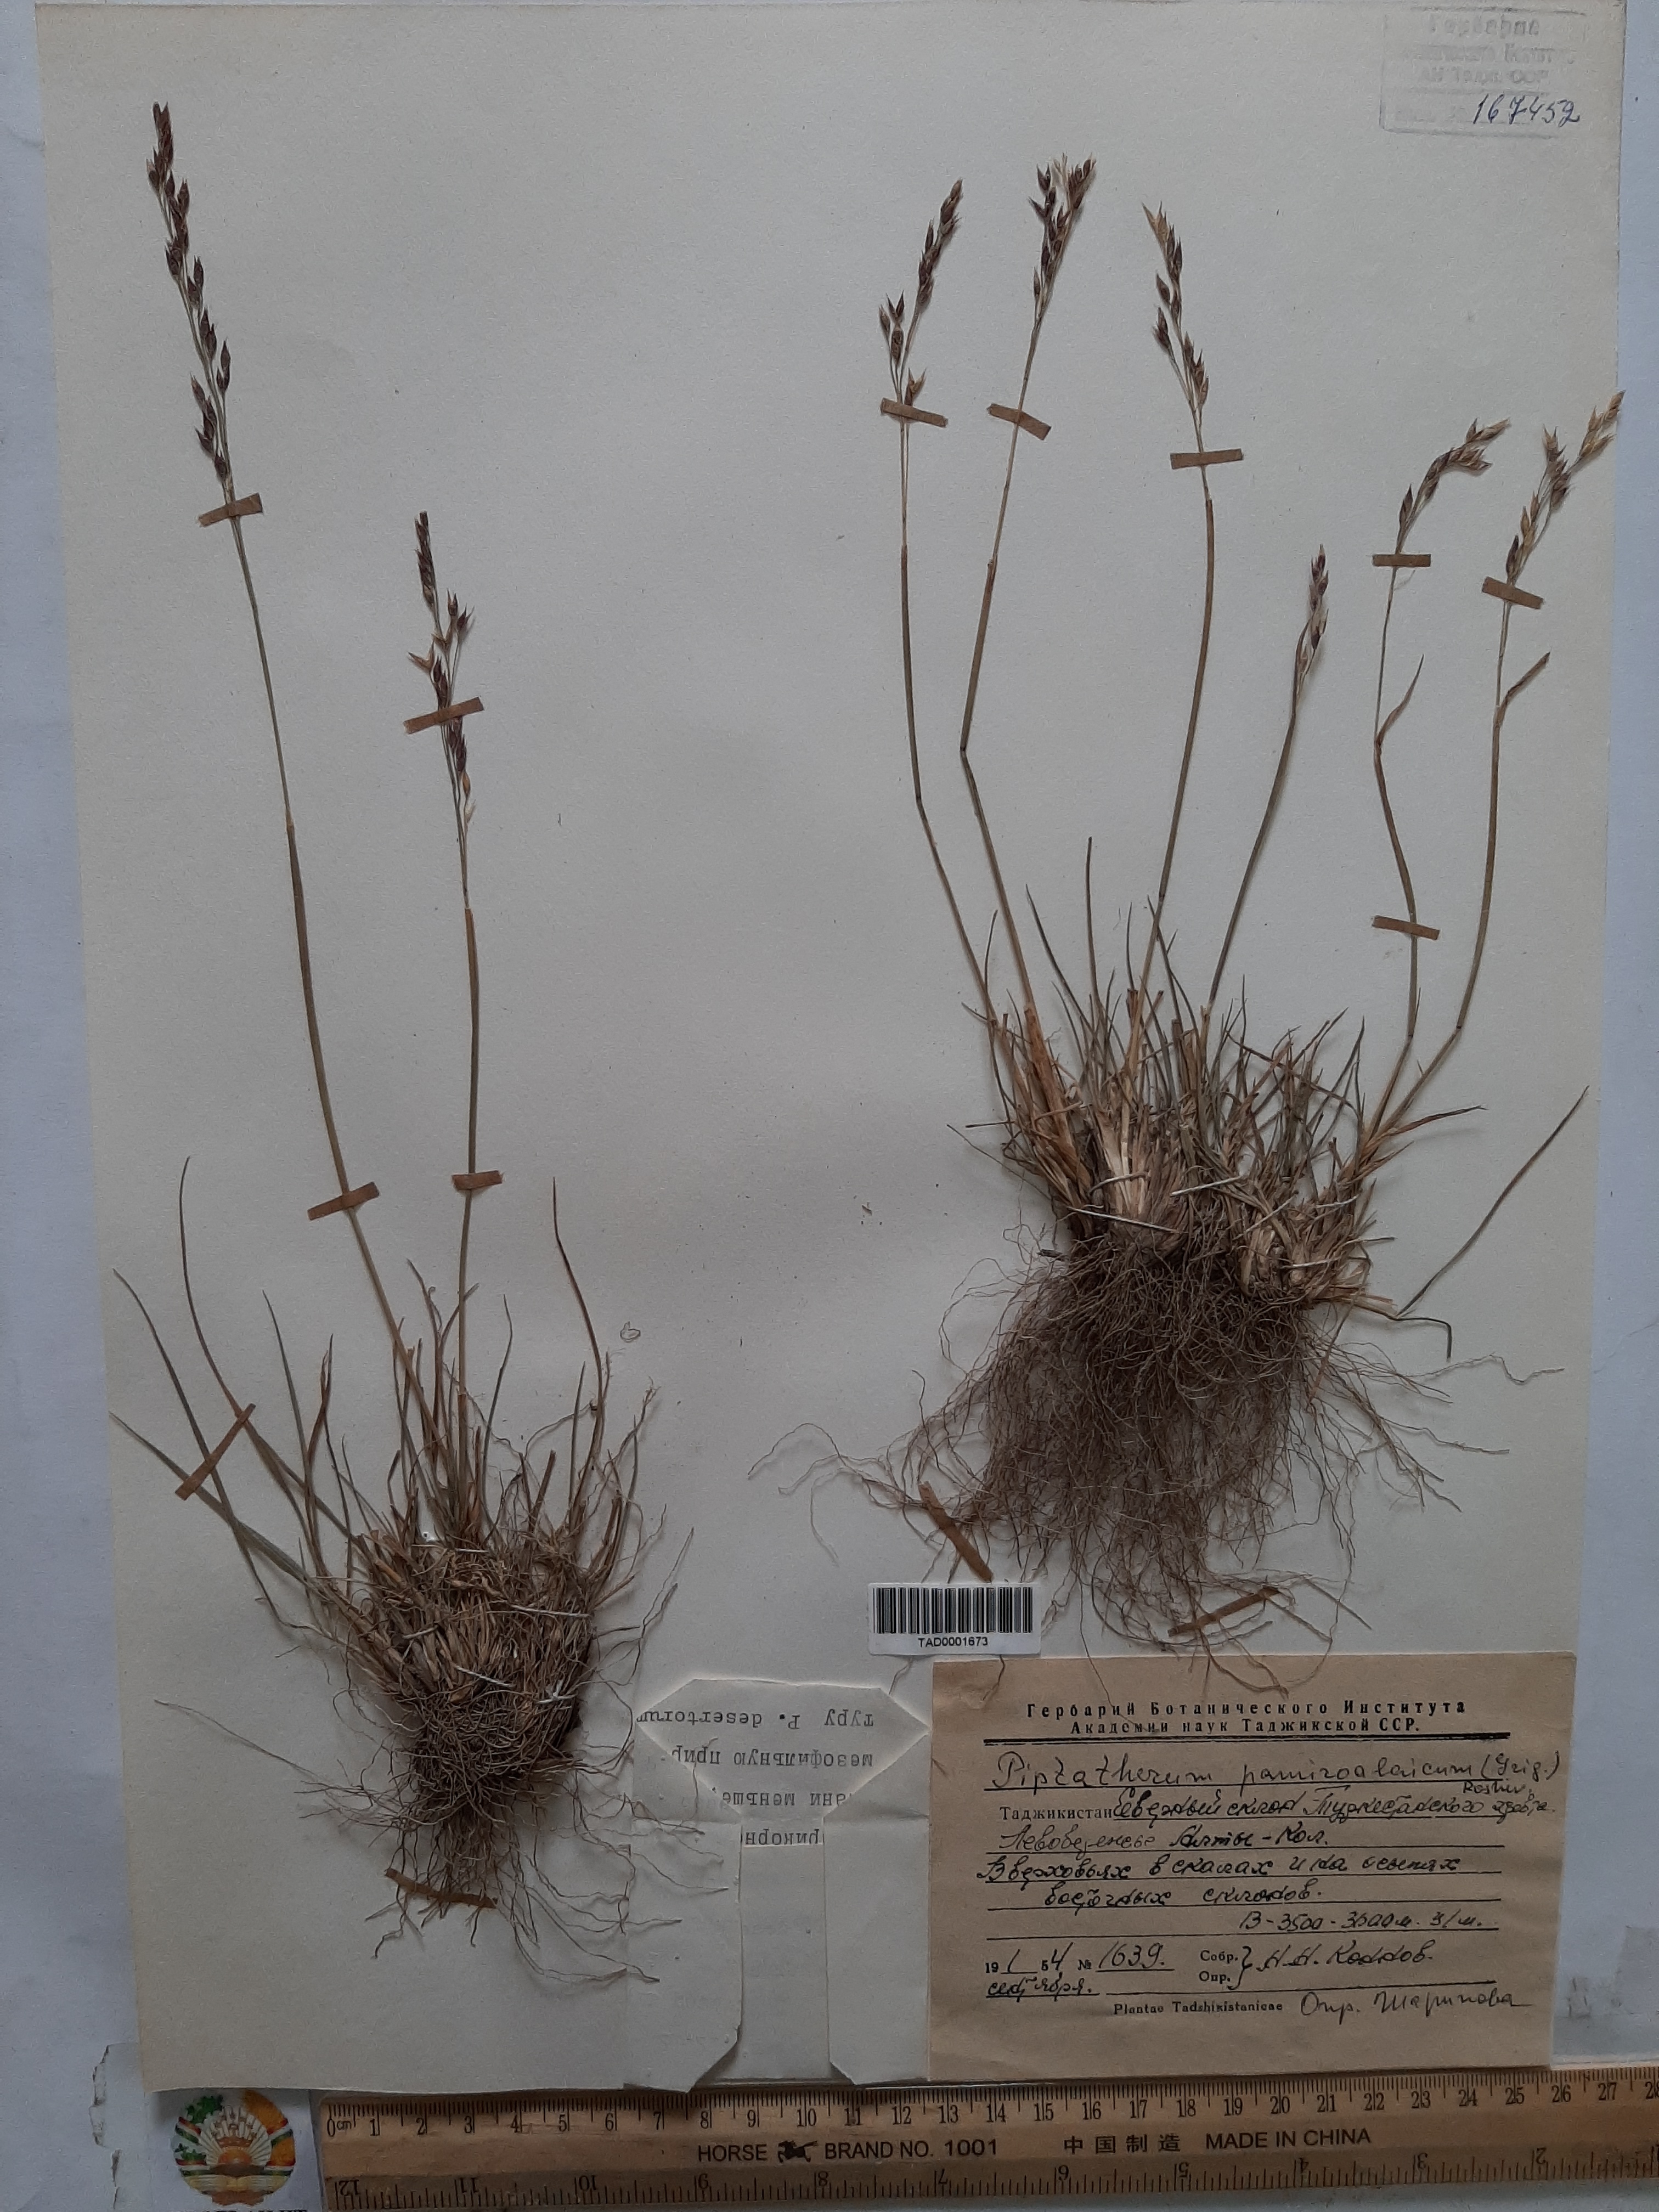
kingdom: Plantae
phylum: Tracheophyta
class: Liliopsida
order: Poales
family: Poaceae
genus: Piptatherum
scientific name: Piptatherum latifolium
